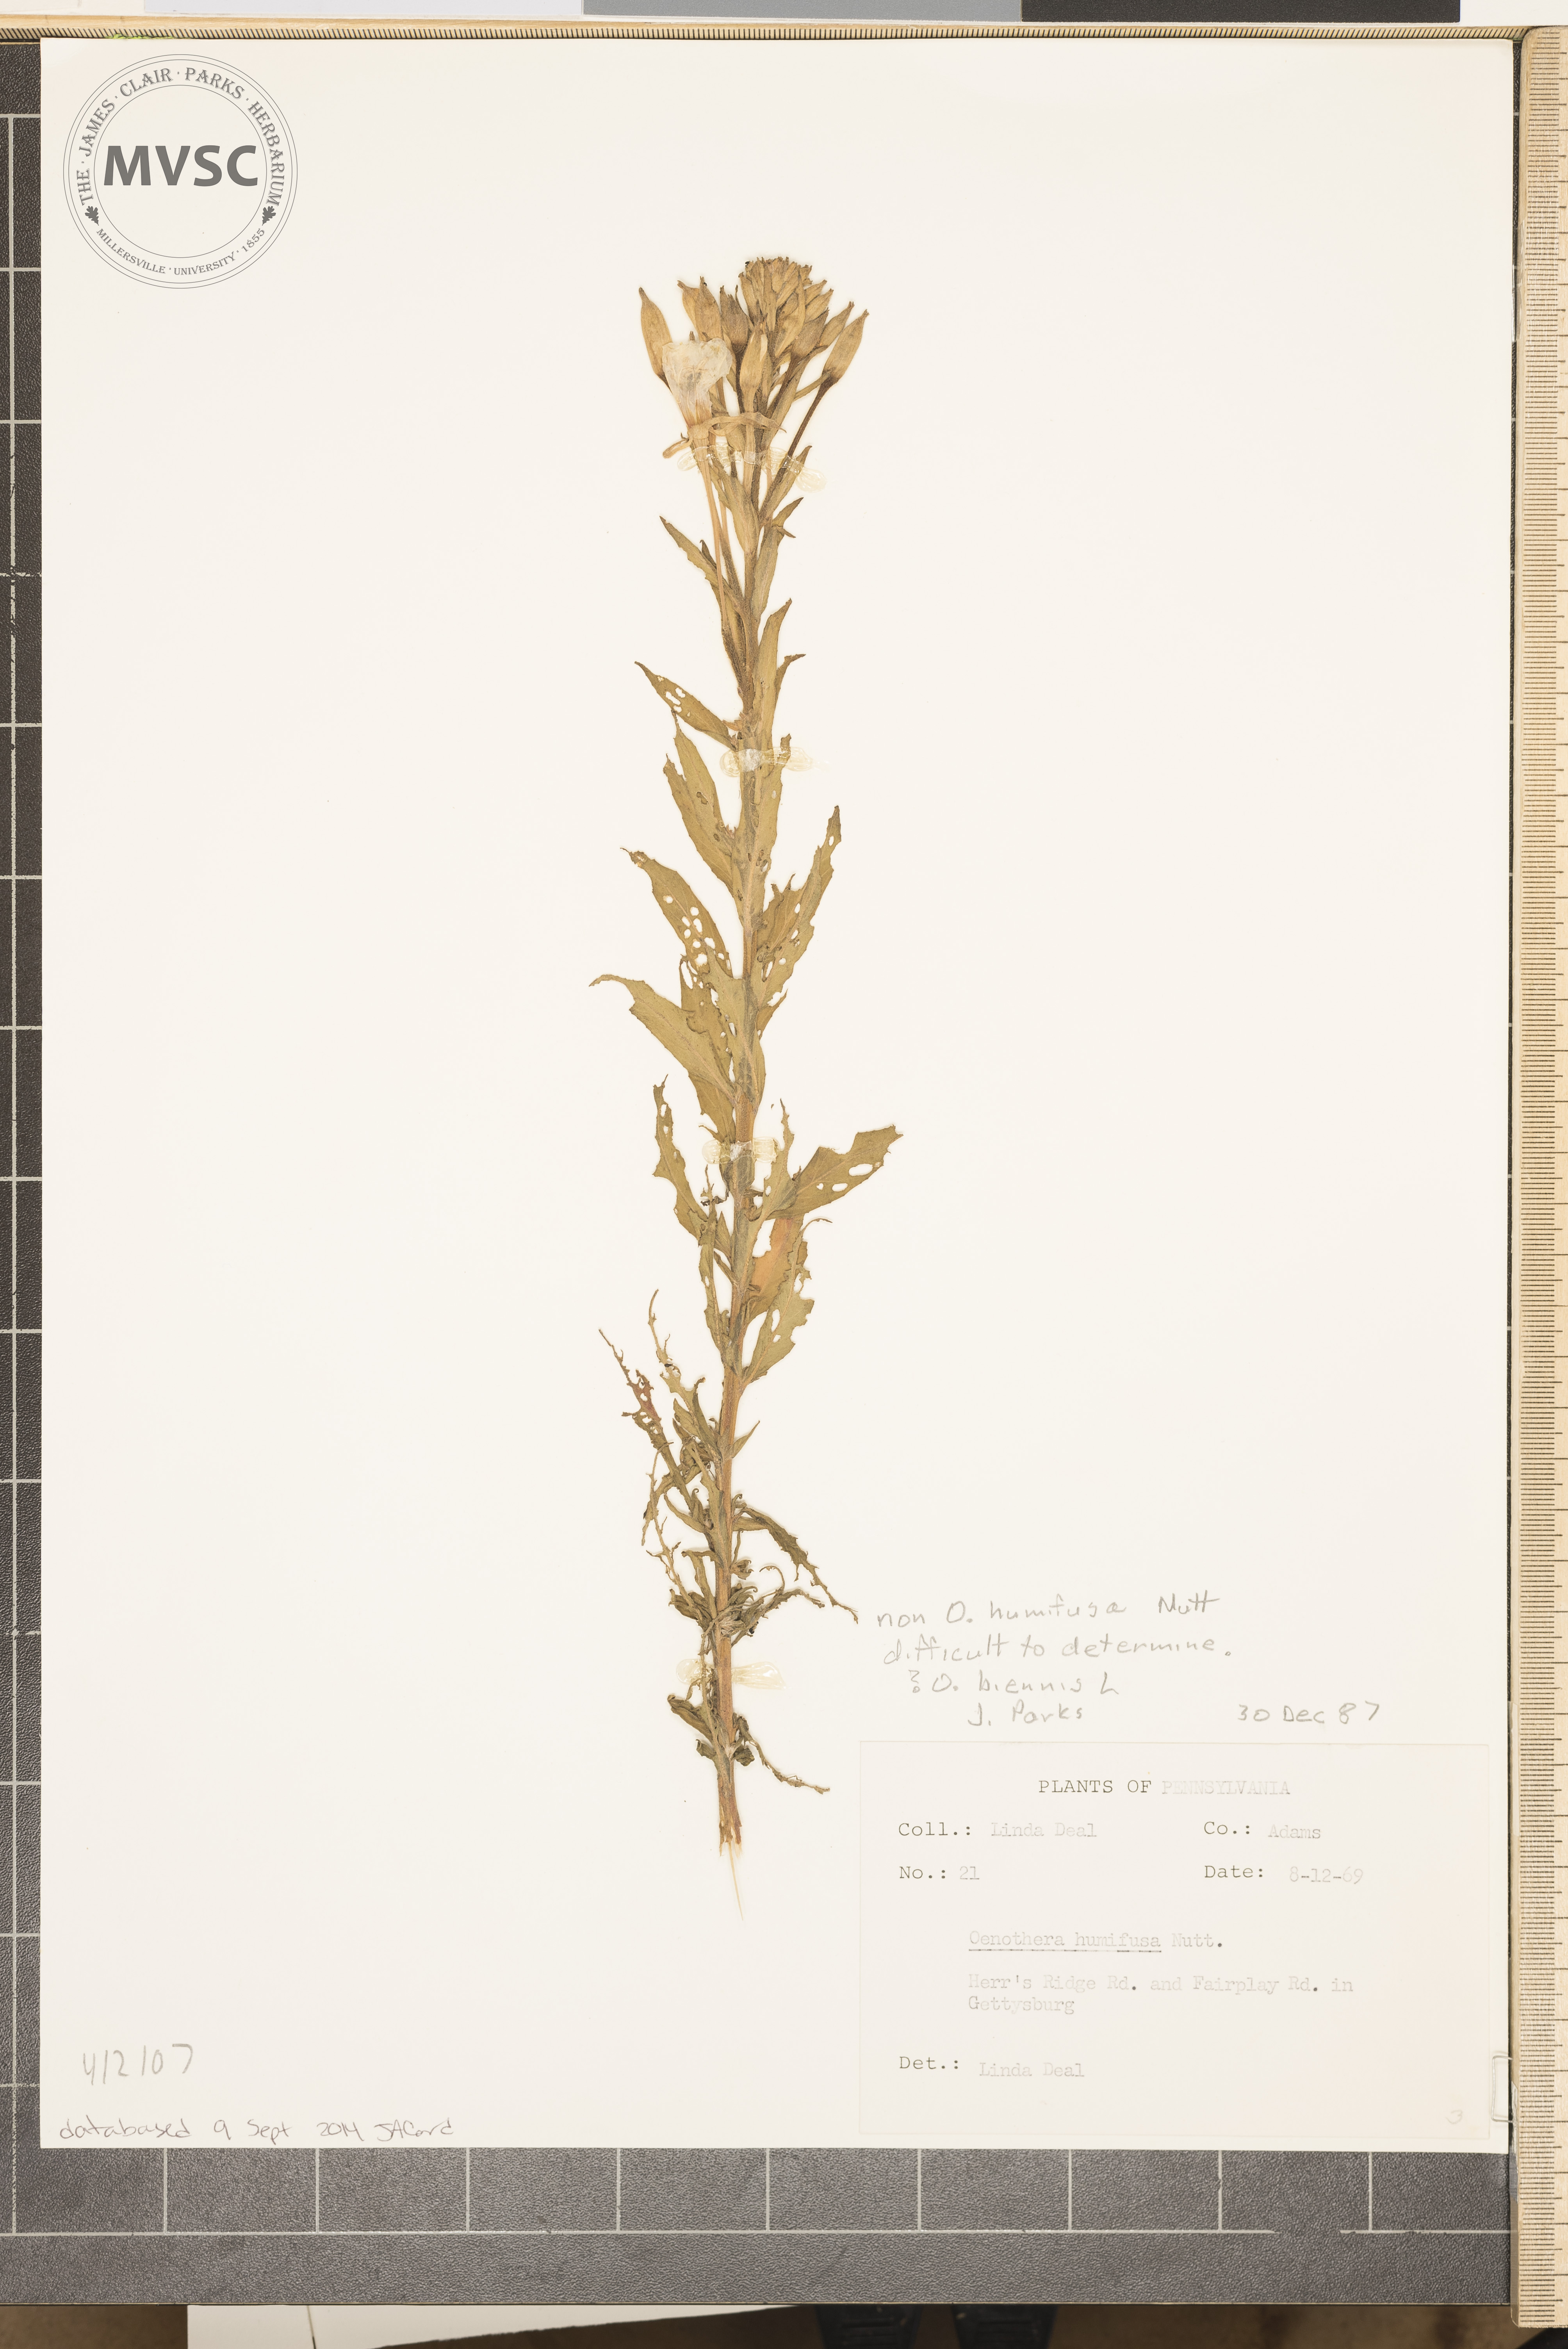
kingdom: Plantae
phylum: Tracheophyta
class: Magnoliopsida
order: Myrtales
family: Onagraceae
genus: Oenothera
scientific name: Oenothera biennis
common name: Common evening-primrose
